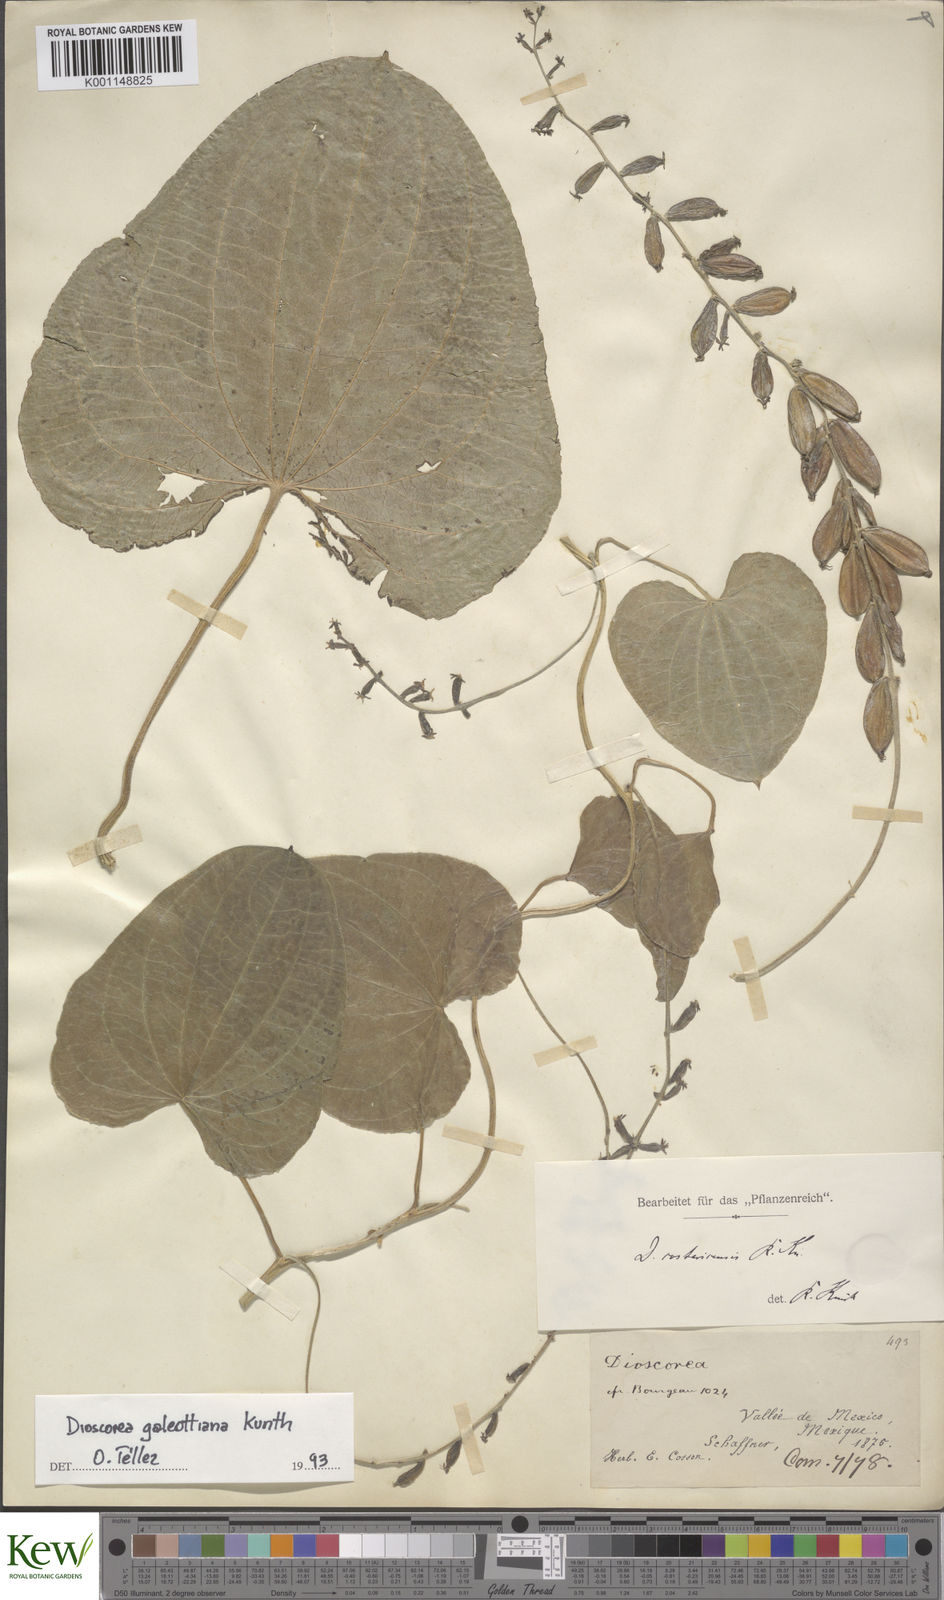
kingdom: Plantae
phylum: Tracheophyta
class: Liliopsida
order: Dioscoreales
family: Dioscoreaceae
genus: Dioscorea
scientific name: Dioscorea pilosiuscula
